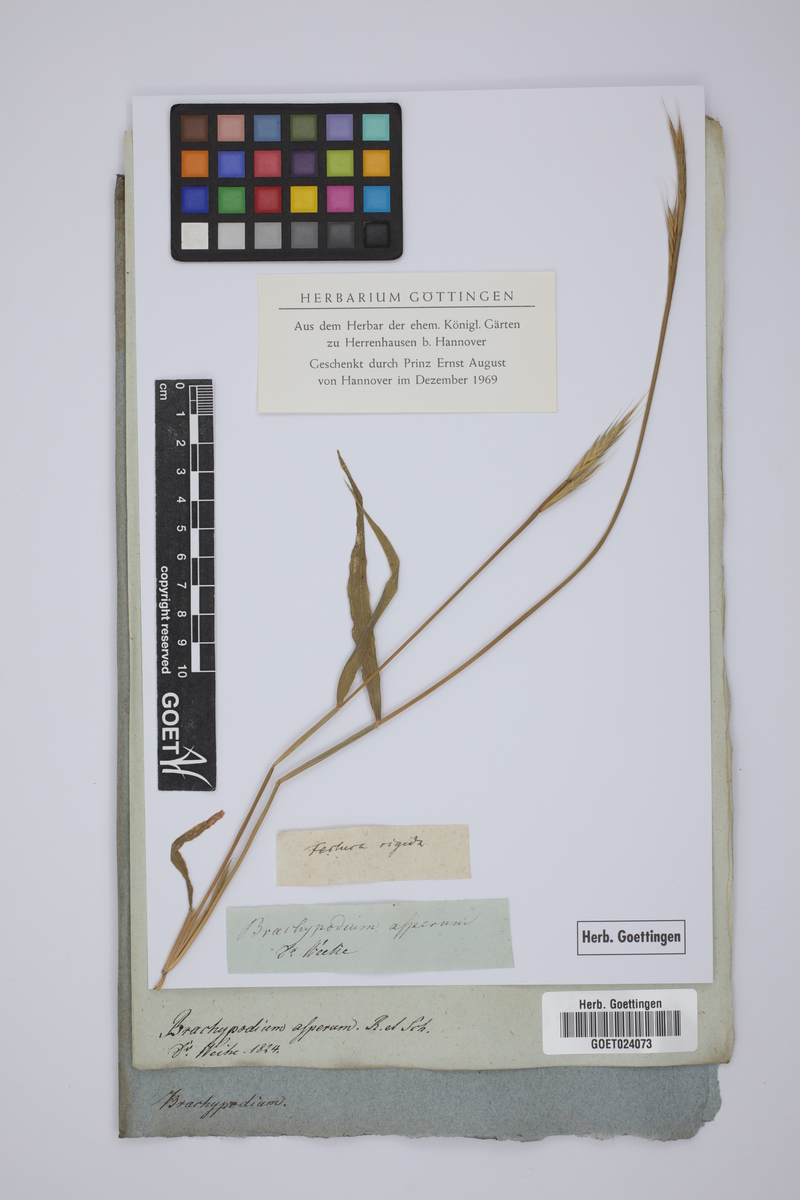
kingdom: Plantae
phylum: Tracheophyta
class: Liliopsida
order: Poales
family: Poaceae
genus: Brachypodium
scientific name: Brachypodium distachyon
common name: Stiff brome
